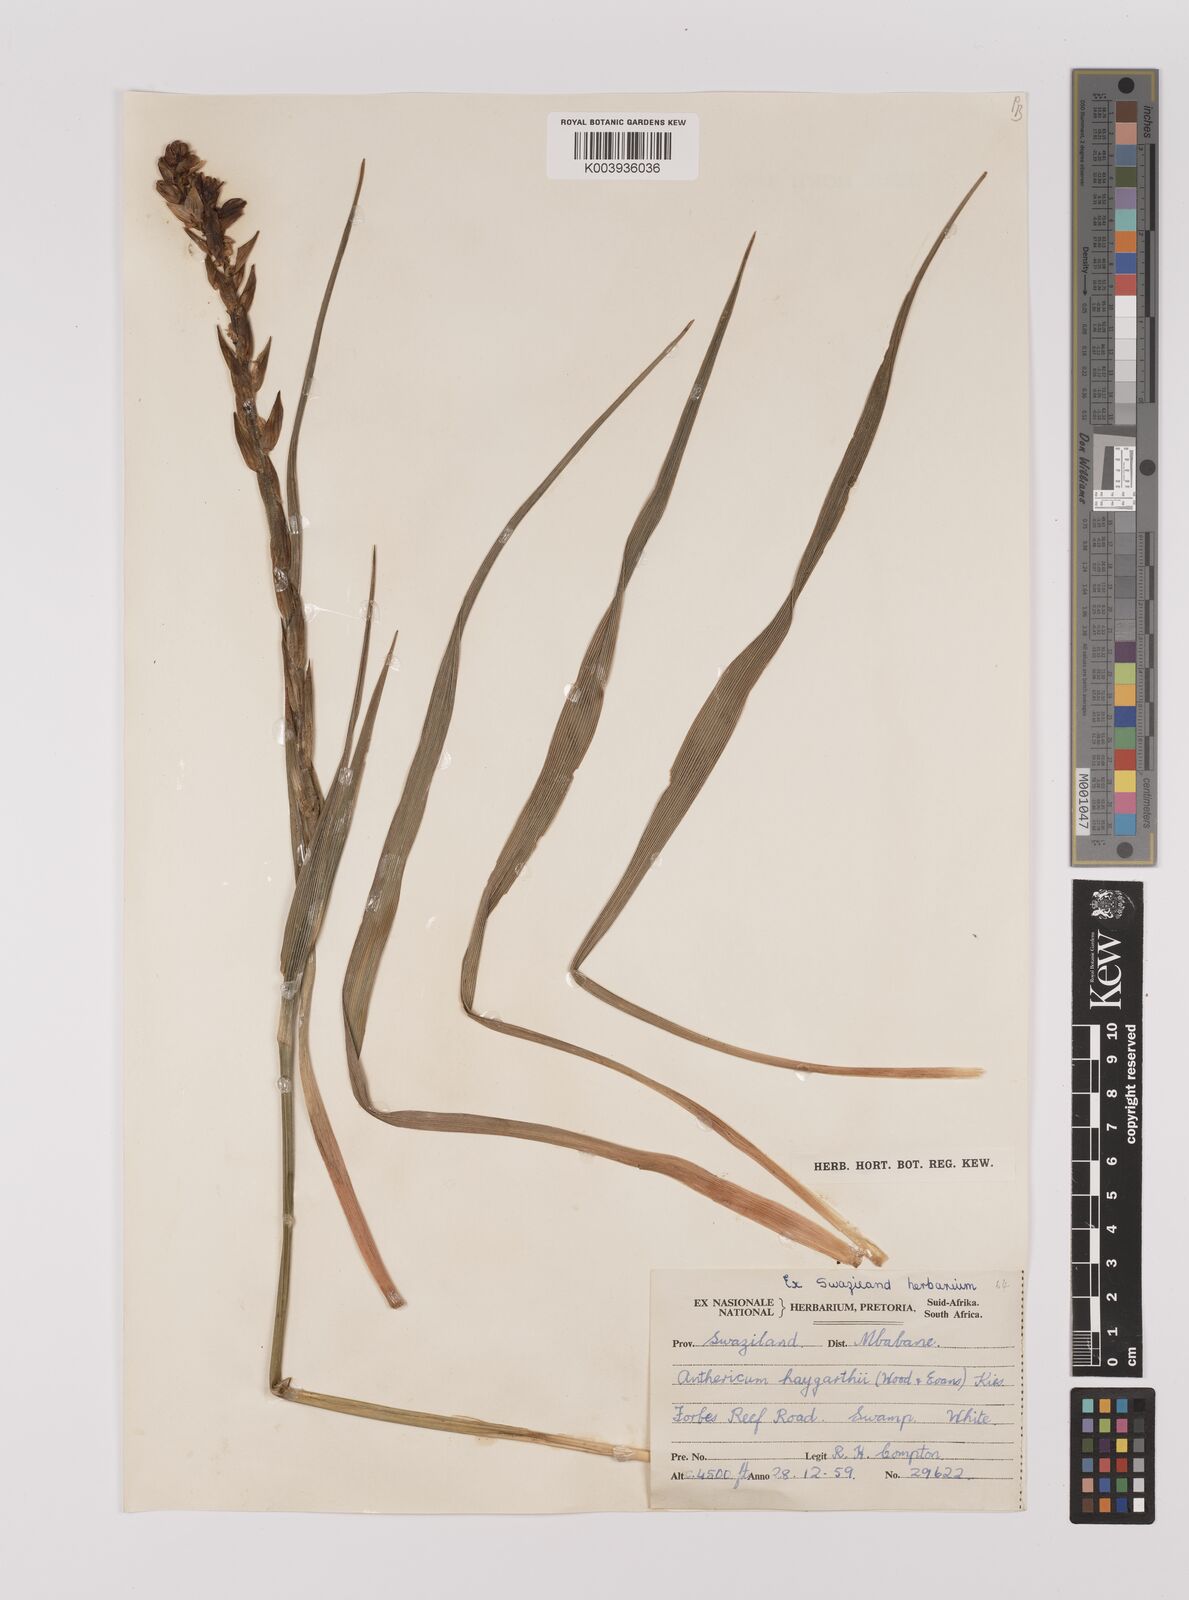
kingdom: Plantae
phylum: Tracheophyta
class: Liliopsida
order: Asparagales
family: Asparagaceae
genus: Chlorophytum
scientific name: Chlorophytum haygarthii
